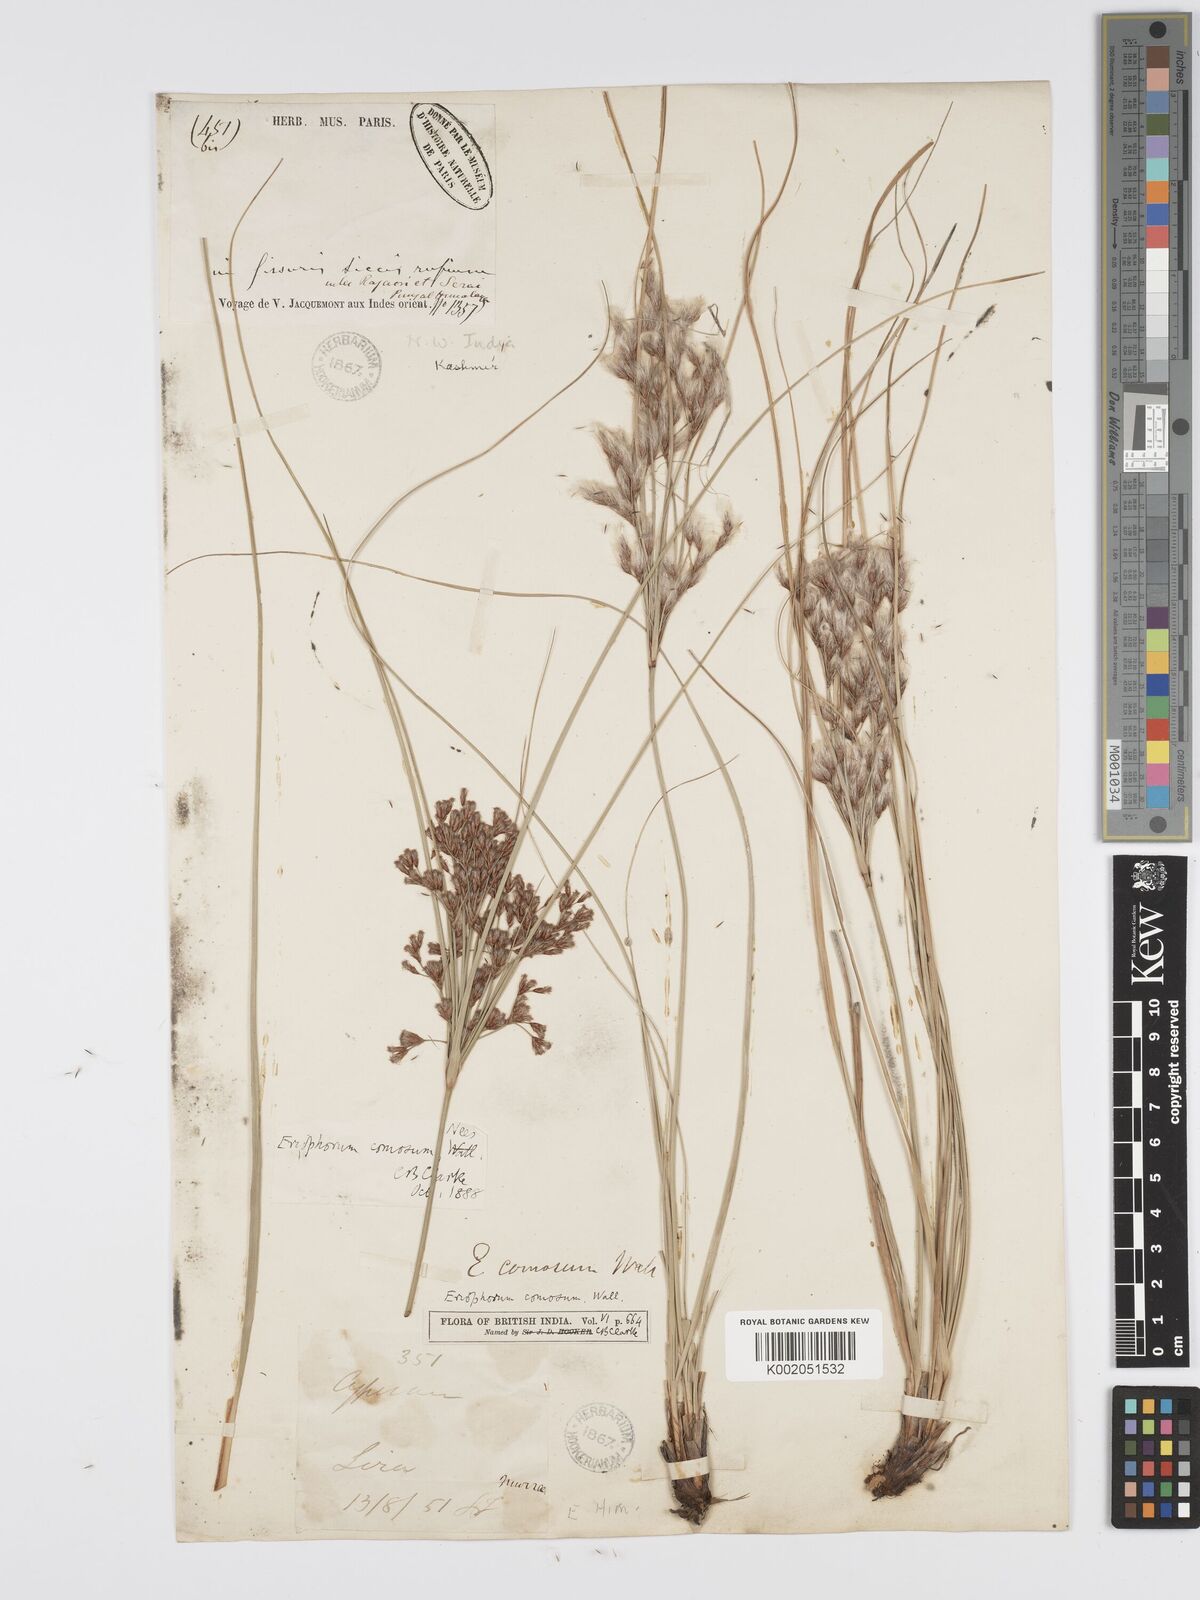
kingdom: Plantae
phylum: Tracheophyta
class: Liliopsida
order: Poales
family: Cyperaceae
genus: Erioscirpus
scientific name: Erioscirpus comosus
